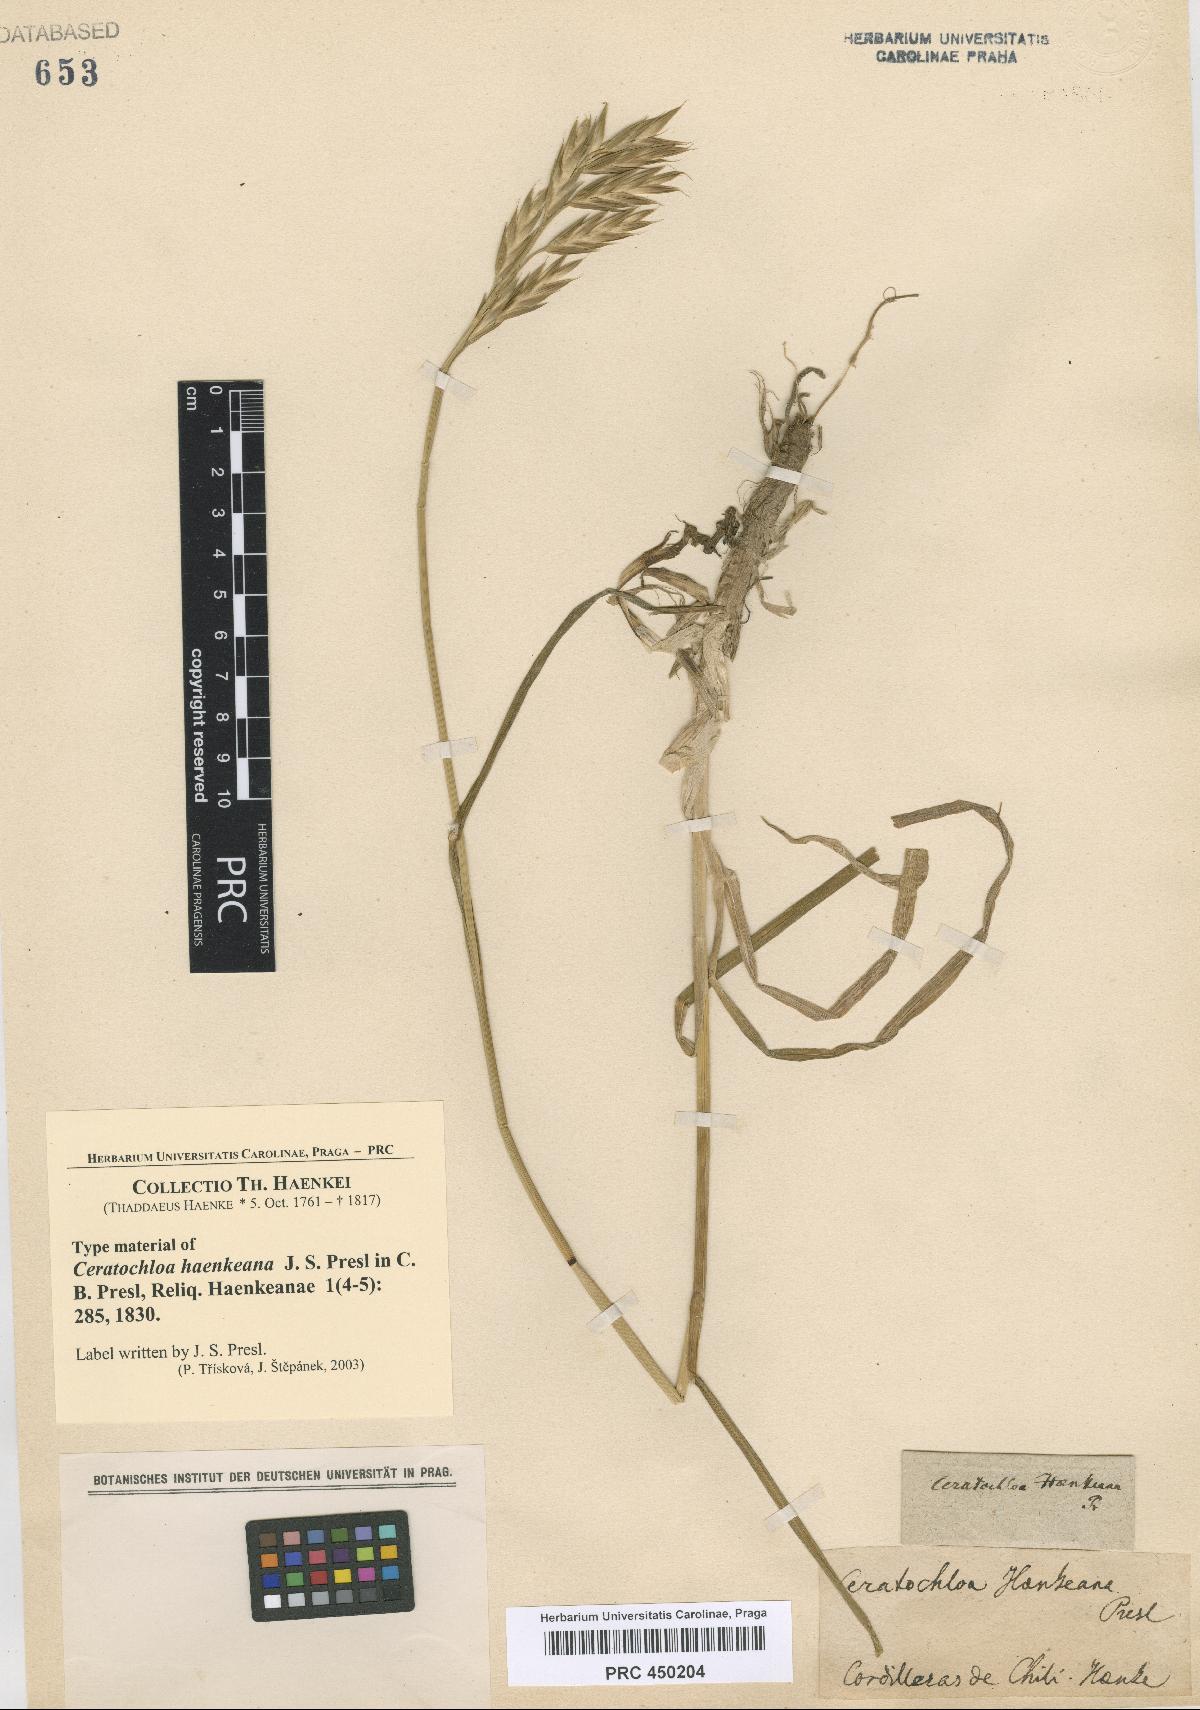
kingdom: Plantae
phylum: Tracheophyta
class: Liliopsida
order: Poales
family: Poaceae
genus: Bromus
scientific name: Bromus catharticus
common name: Rescuegrass
